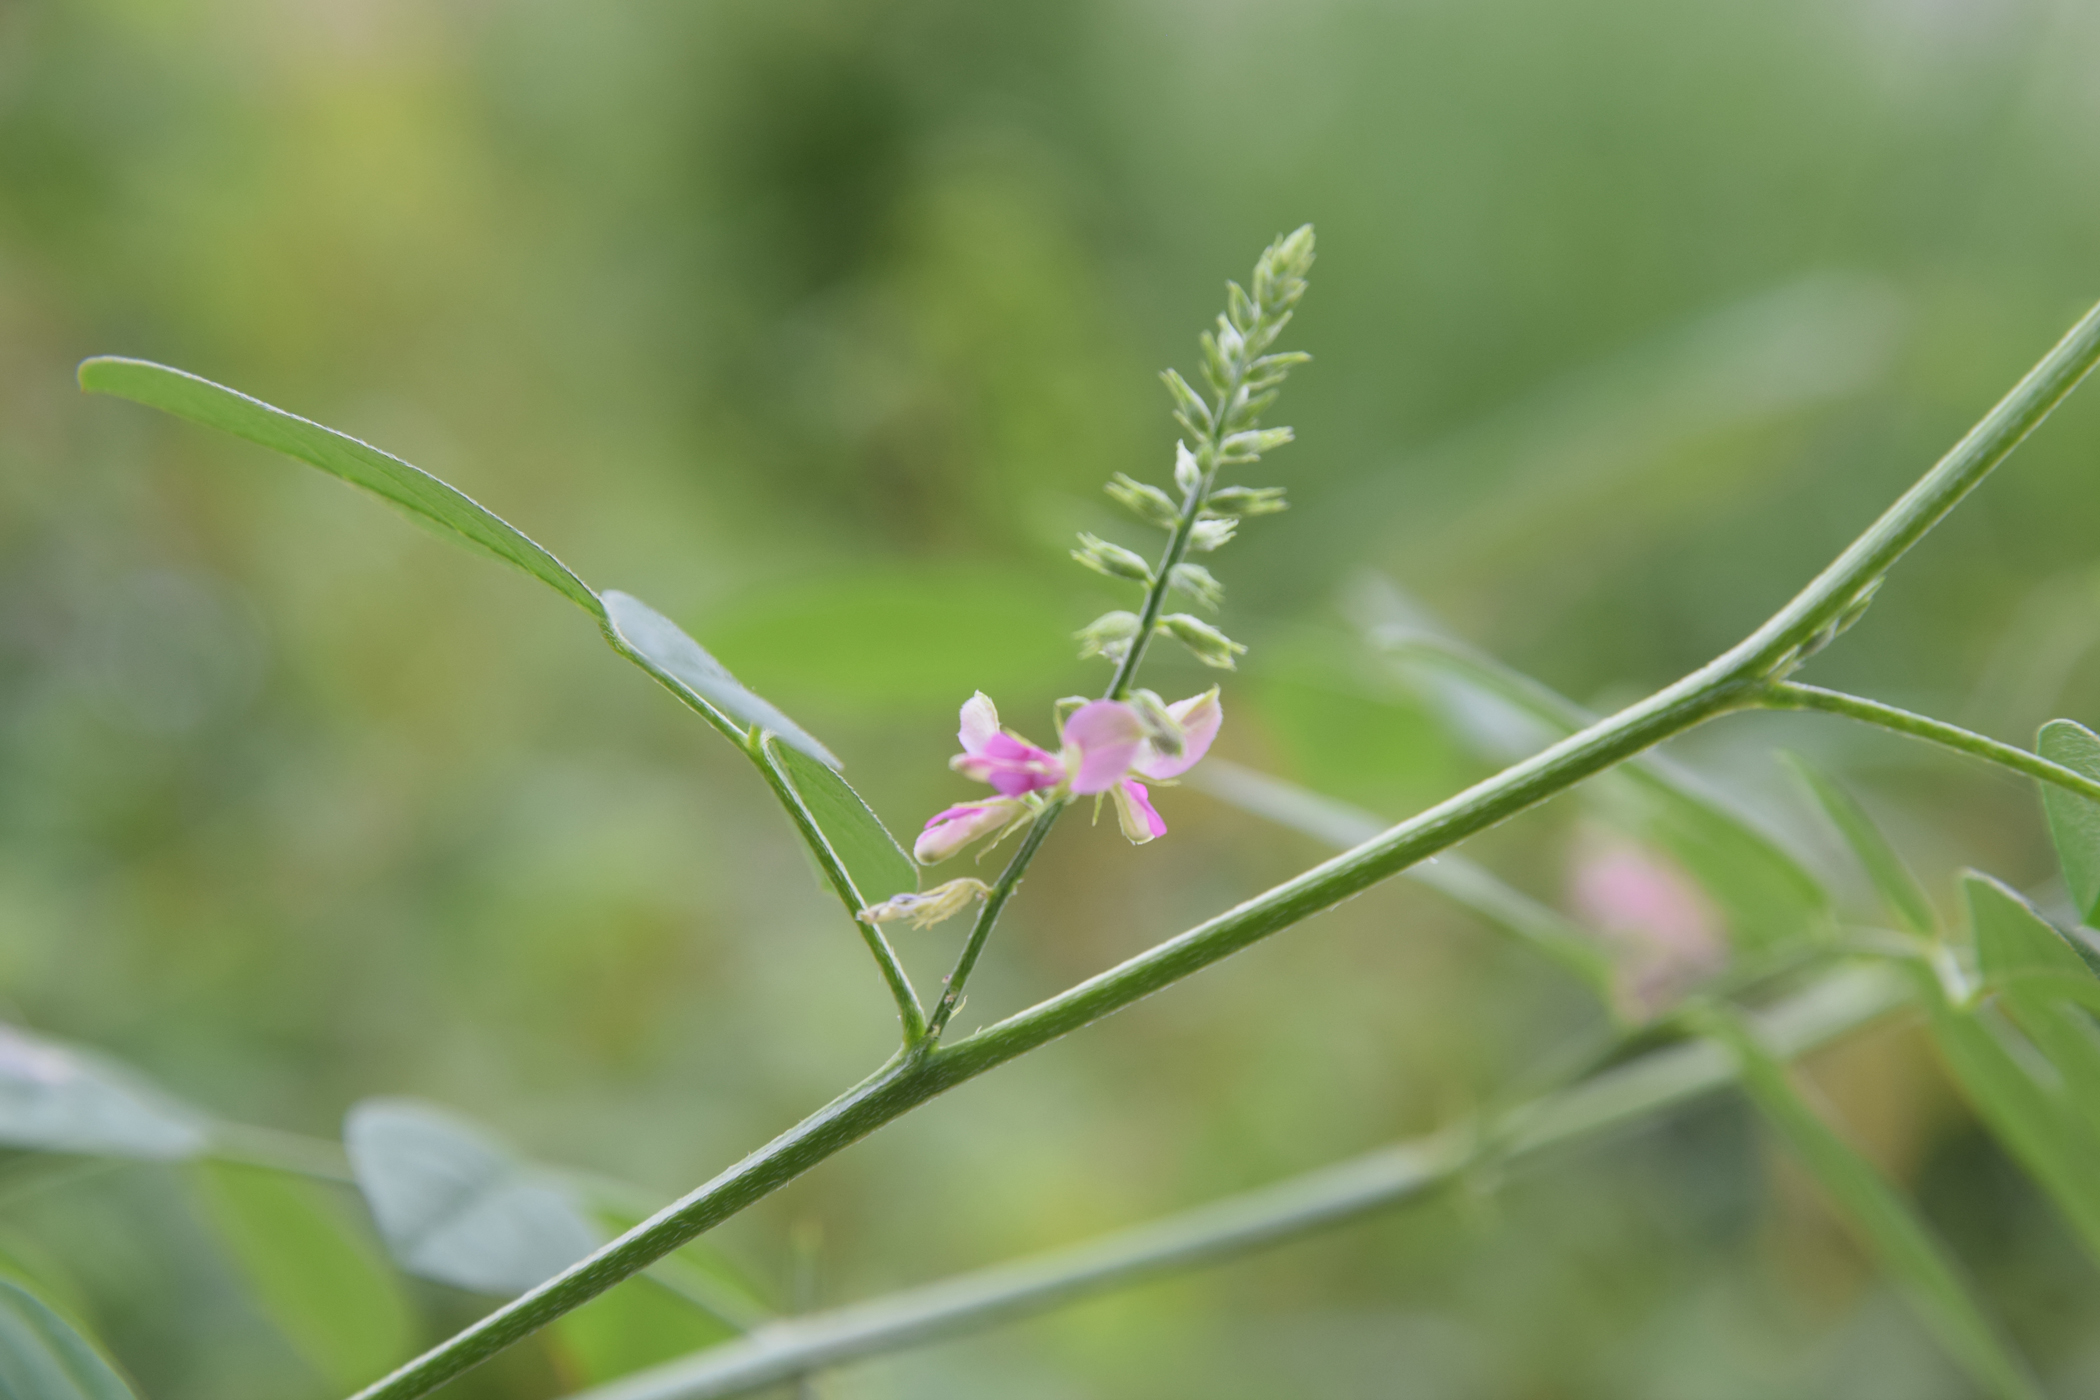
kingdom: Plantae
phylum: Tracheophyta
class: Magnoliopsida
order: Fabales
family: Fabaceae
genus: Indigofera
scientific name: Indigofera trita
